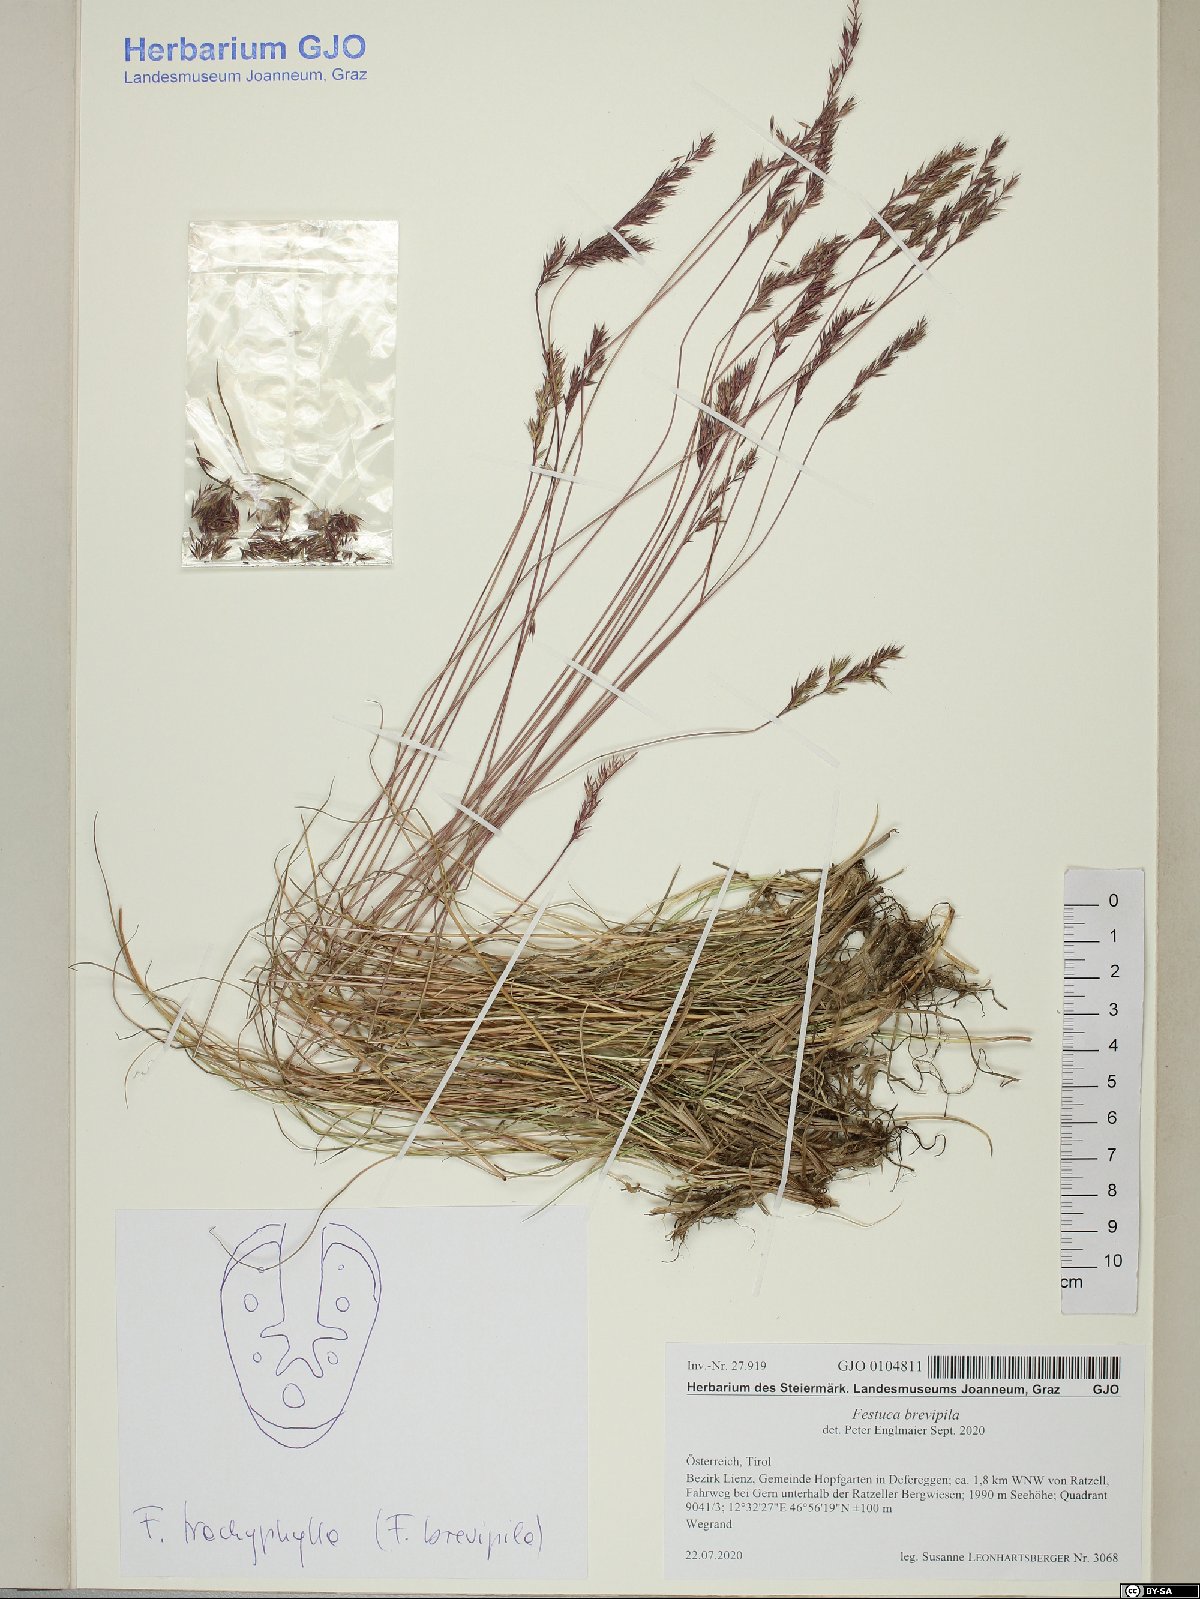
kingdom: Plantae
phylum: Tracheophyta
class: Liliopsida
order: Poales
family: Poaceae
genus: Festuca
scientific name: Festuca trachyphylla
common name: Hard fescue
